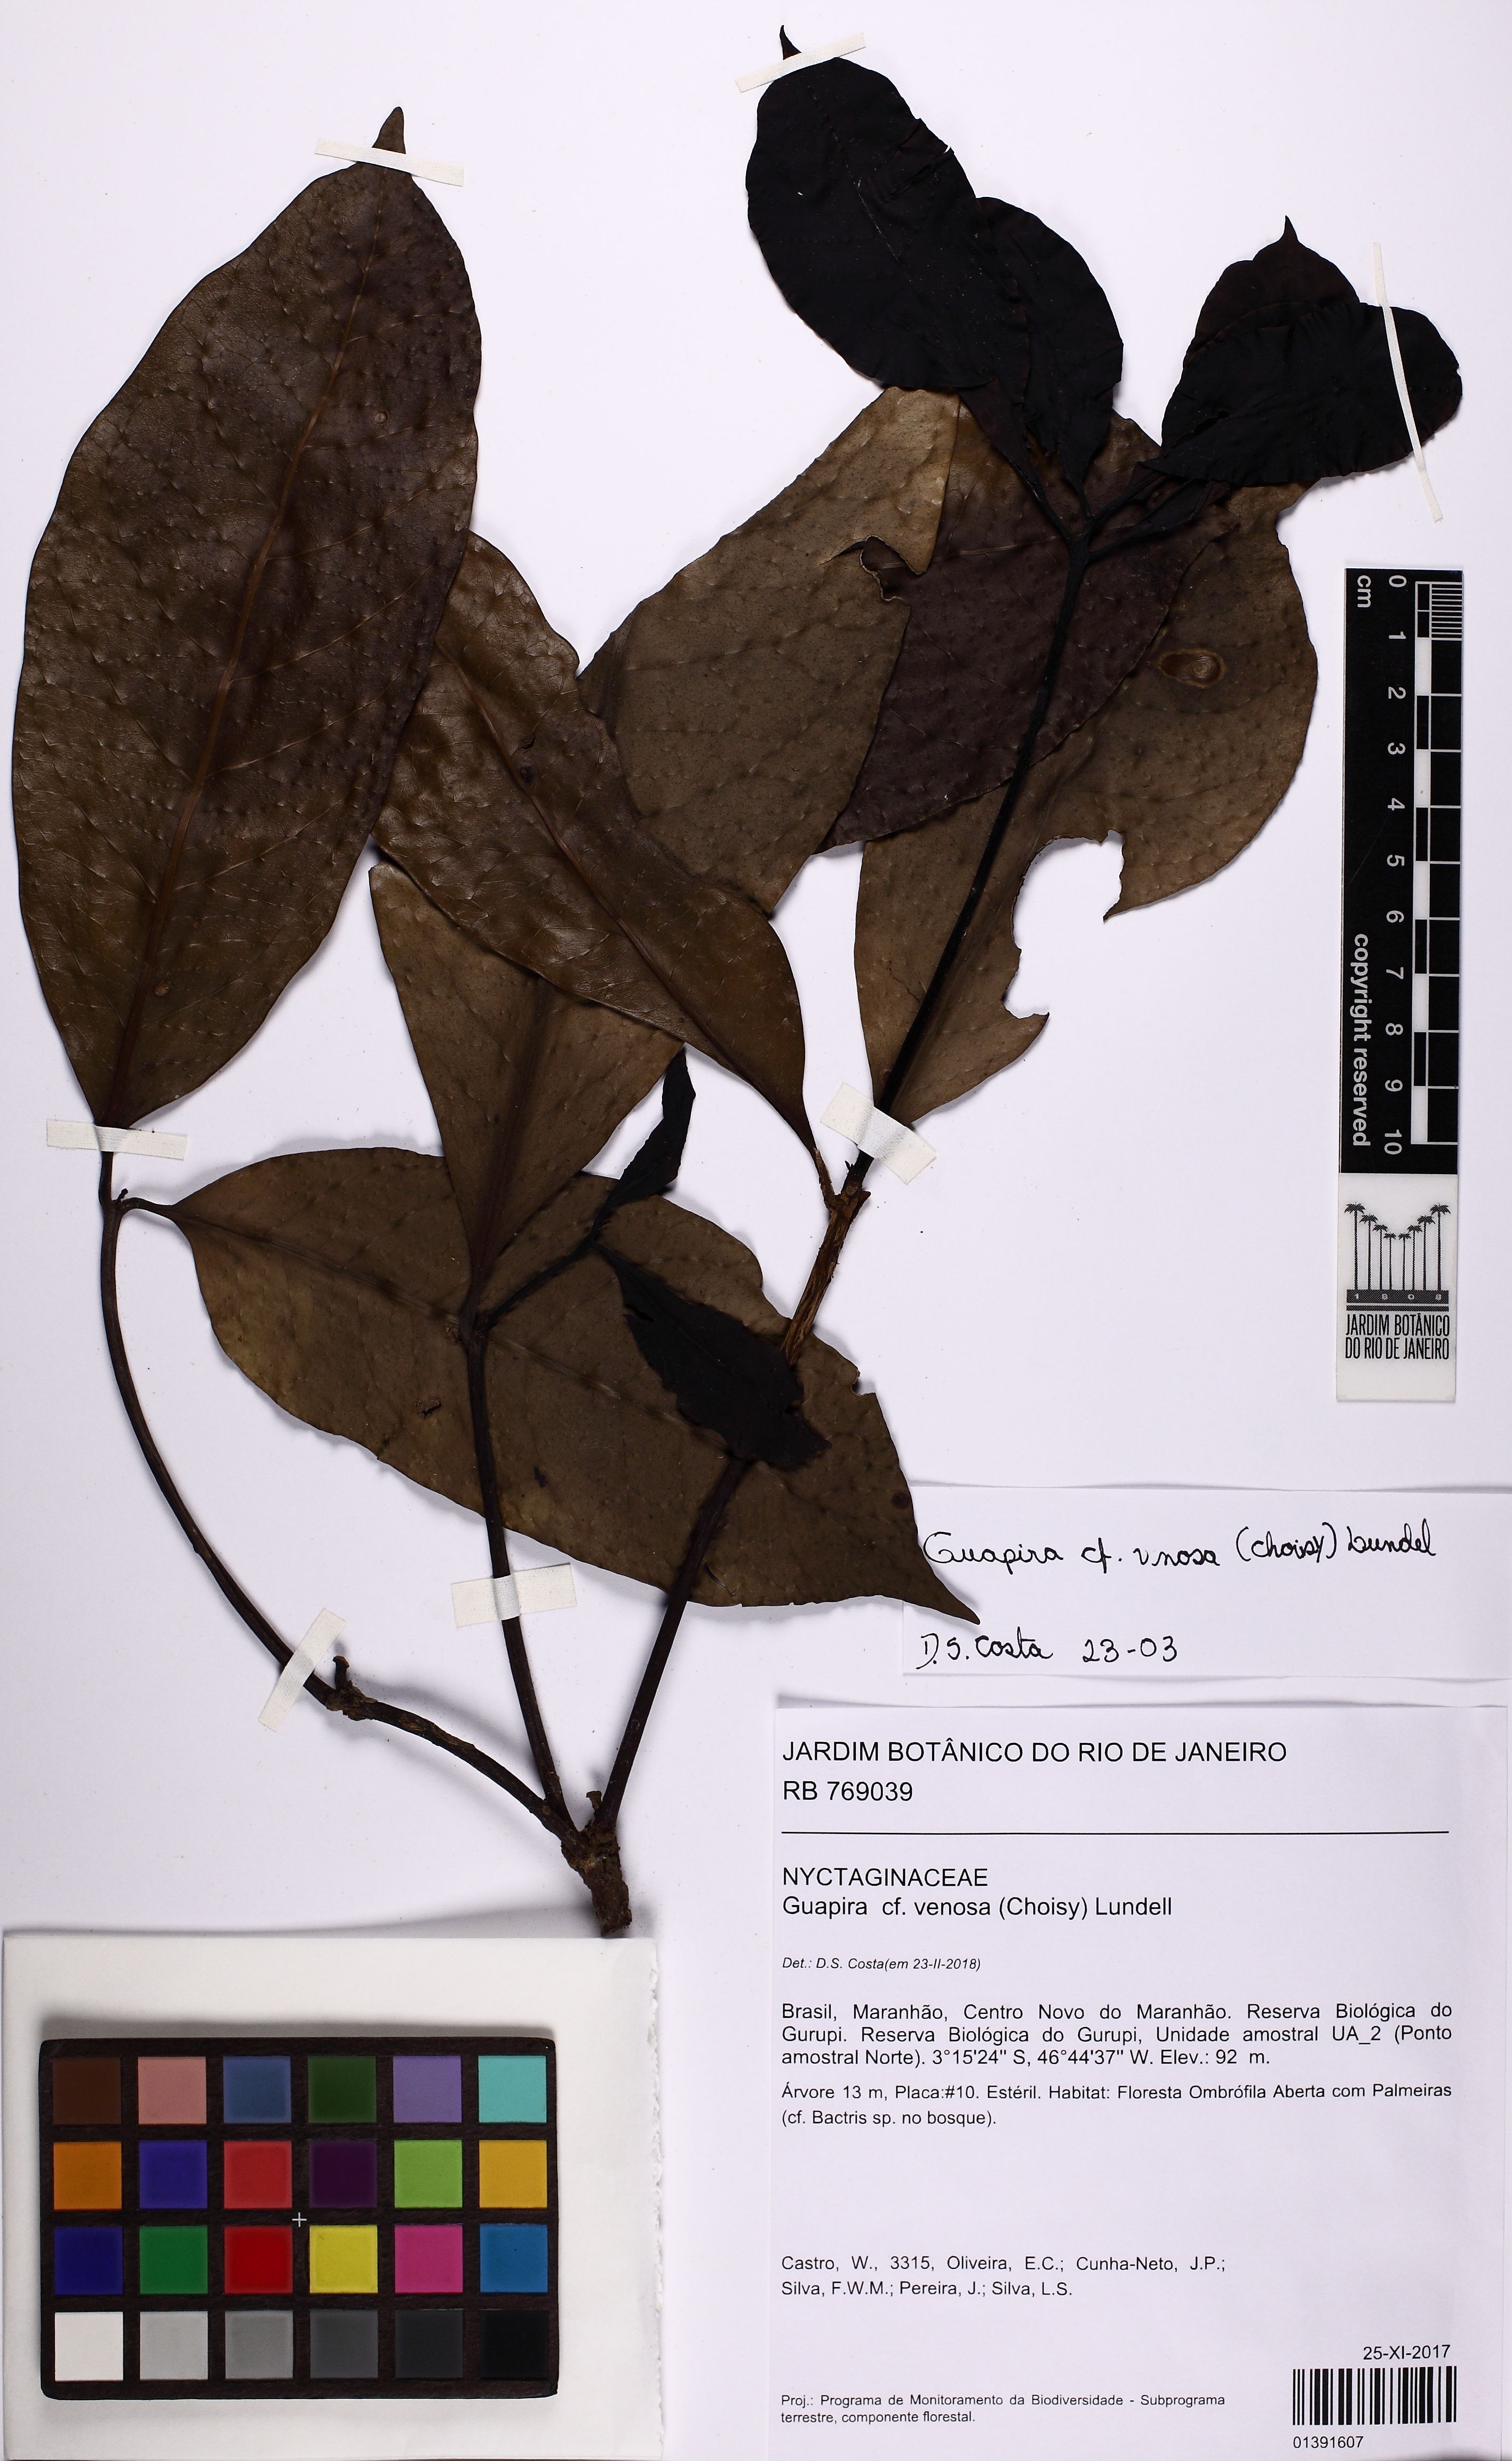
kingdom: Plantae
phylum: Tracheophyta
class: Magnoliopsida
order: Caryophyllales
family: Nyctaginaceae
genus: Guapira
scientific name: Guapira venosa
